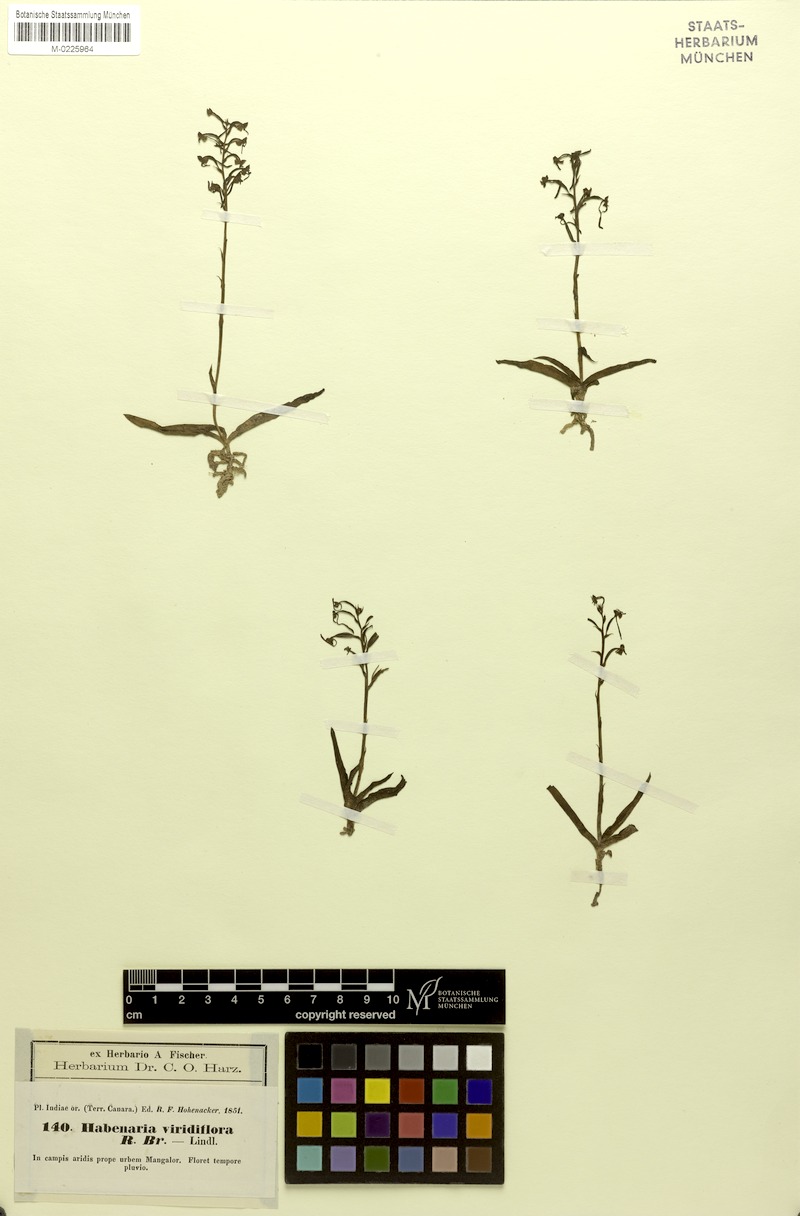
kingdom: Plantae
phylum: Tracheophyta
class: Liliopsida
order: Asparagales
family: Orchidaceae
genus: Habenaria
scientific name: Habenaria viridiflora
